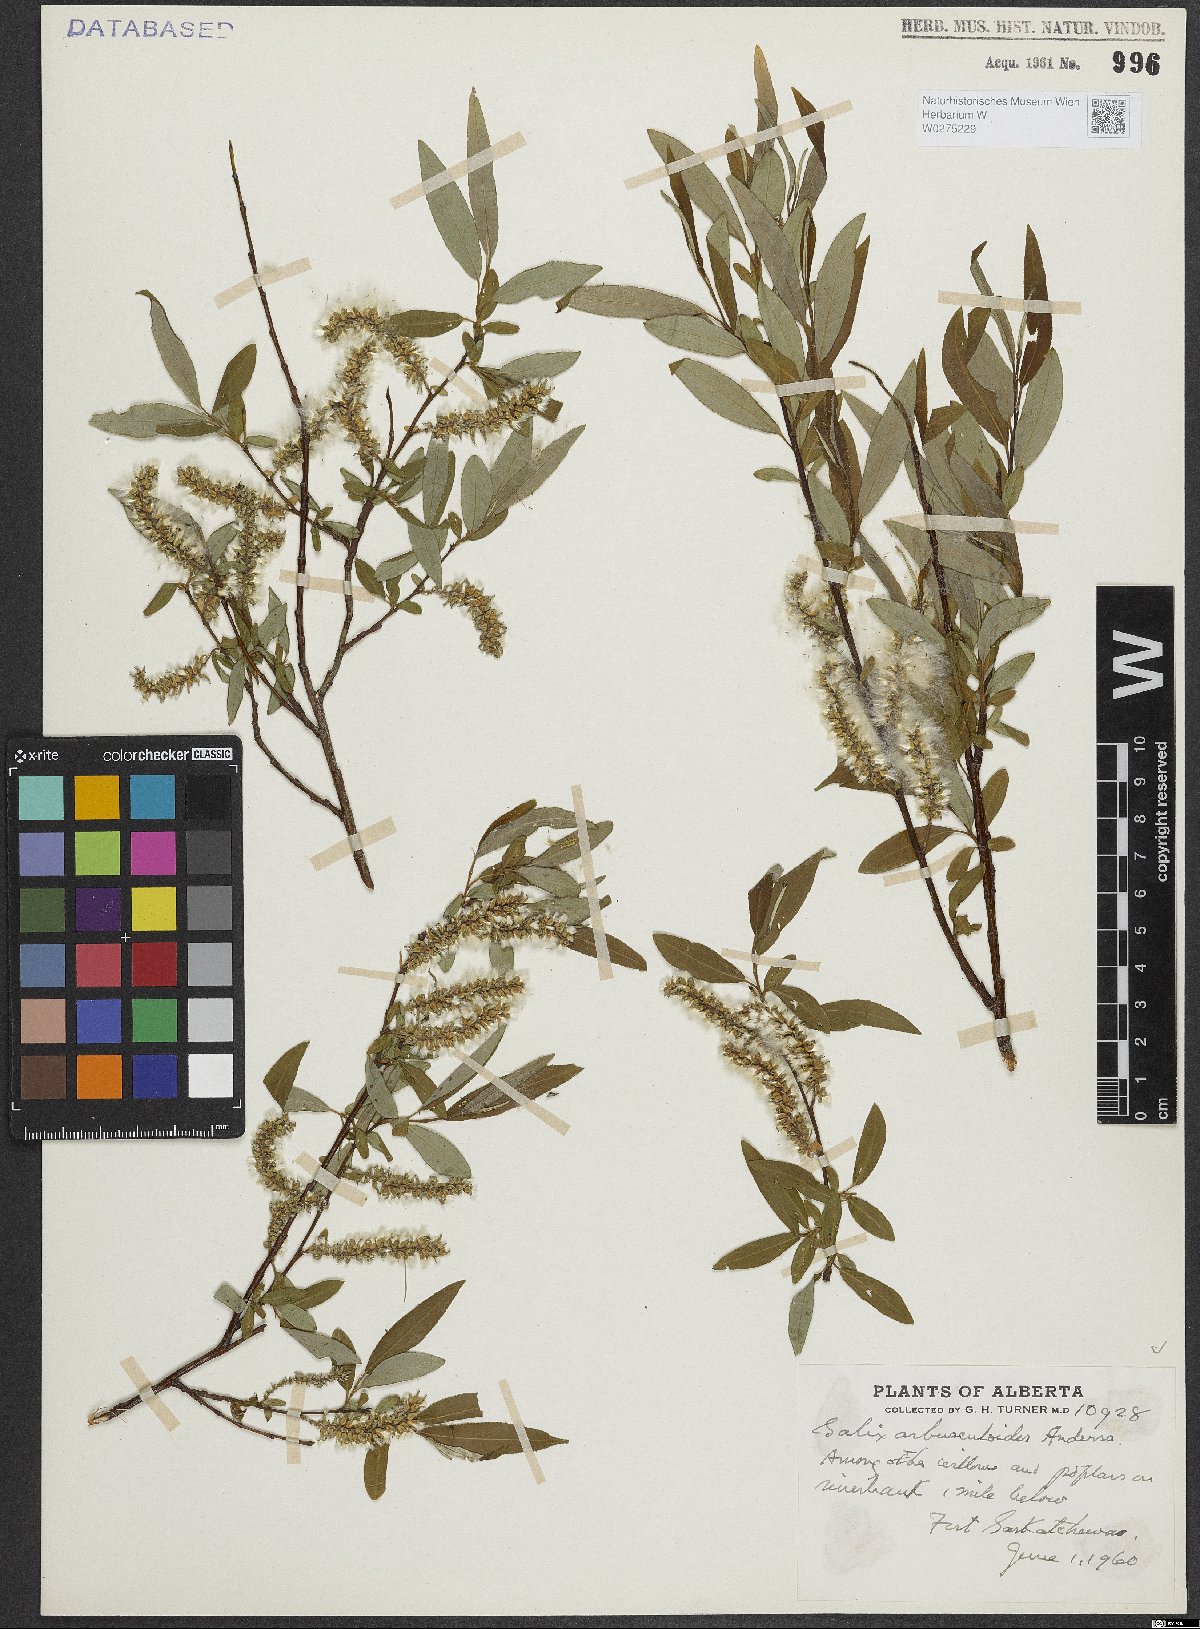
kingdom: Plantae
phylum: Tracheophyta
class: Magnoliopsida
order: Malpighiales
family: Salicaceae
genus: Salix
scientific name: Salix arbusculoides
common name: Little-tree willow
